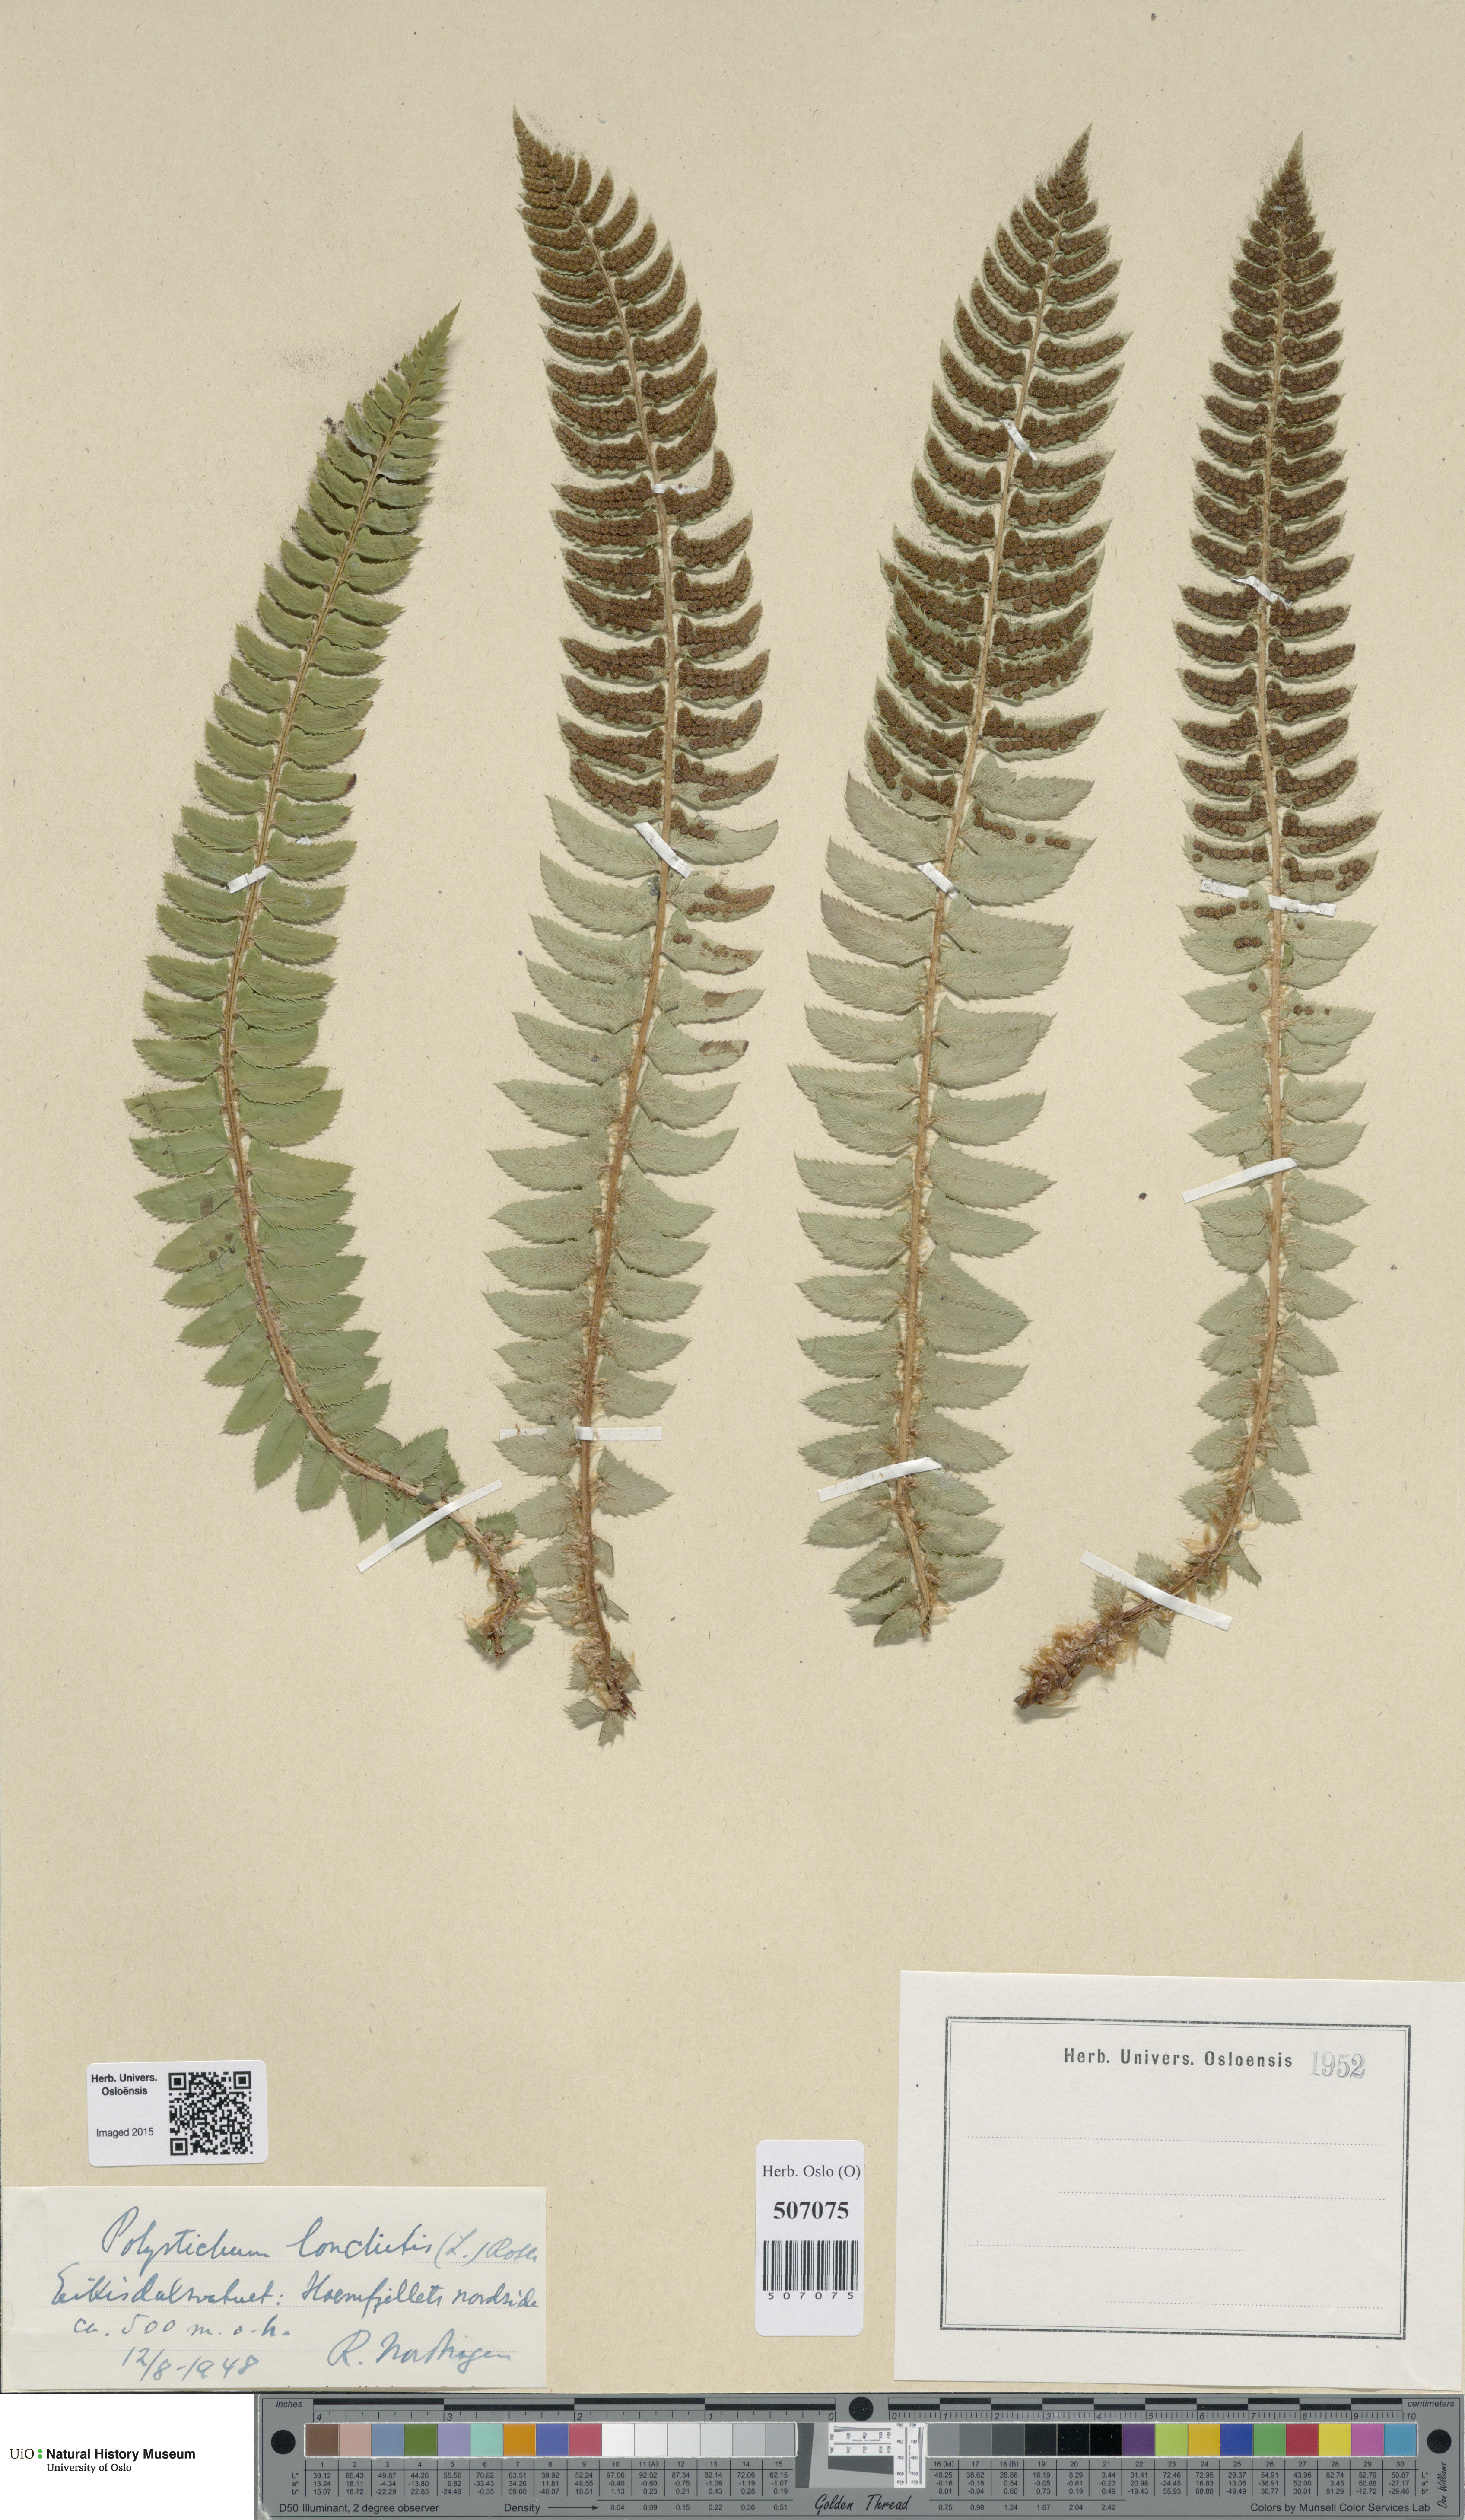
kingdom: Plantae
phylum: Tracheophyta
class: Polypodiopsida
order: Polypodiales
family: Dryopteridaceae
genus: Polystichum
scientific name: Polystichum lonchitis
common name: Holly fern
